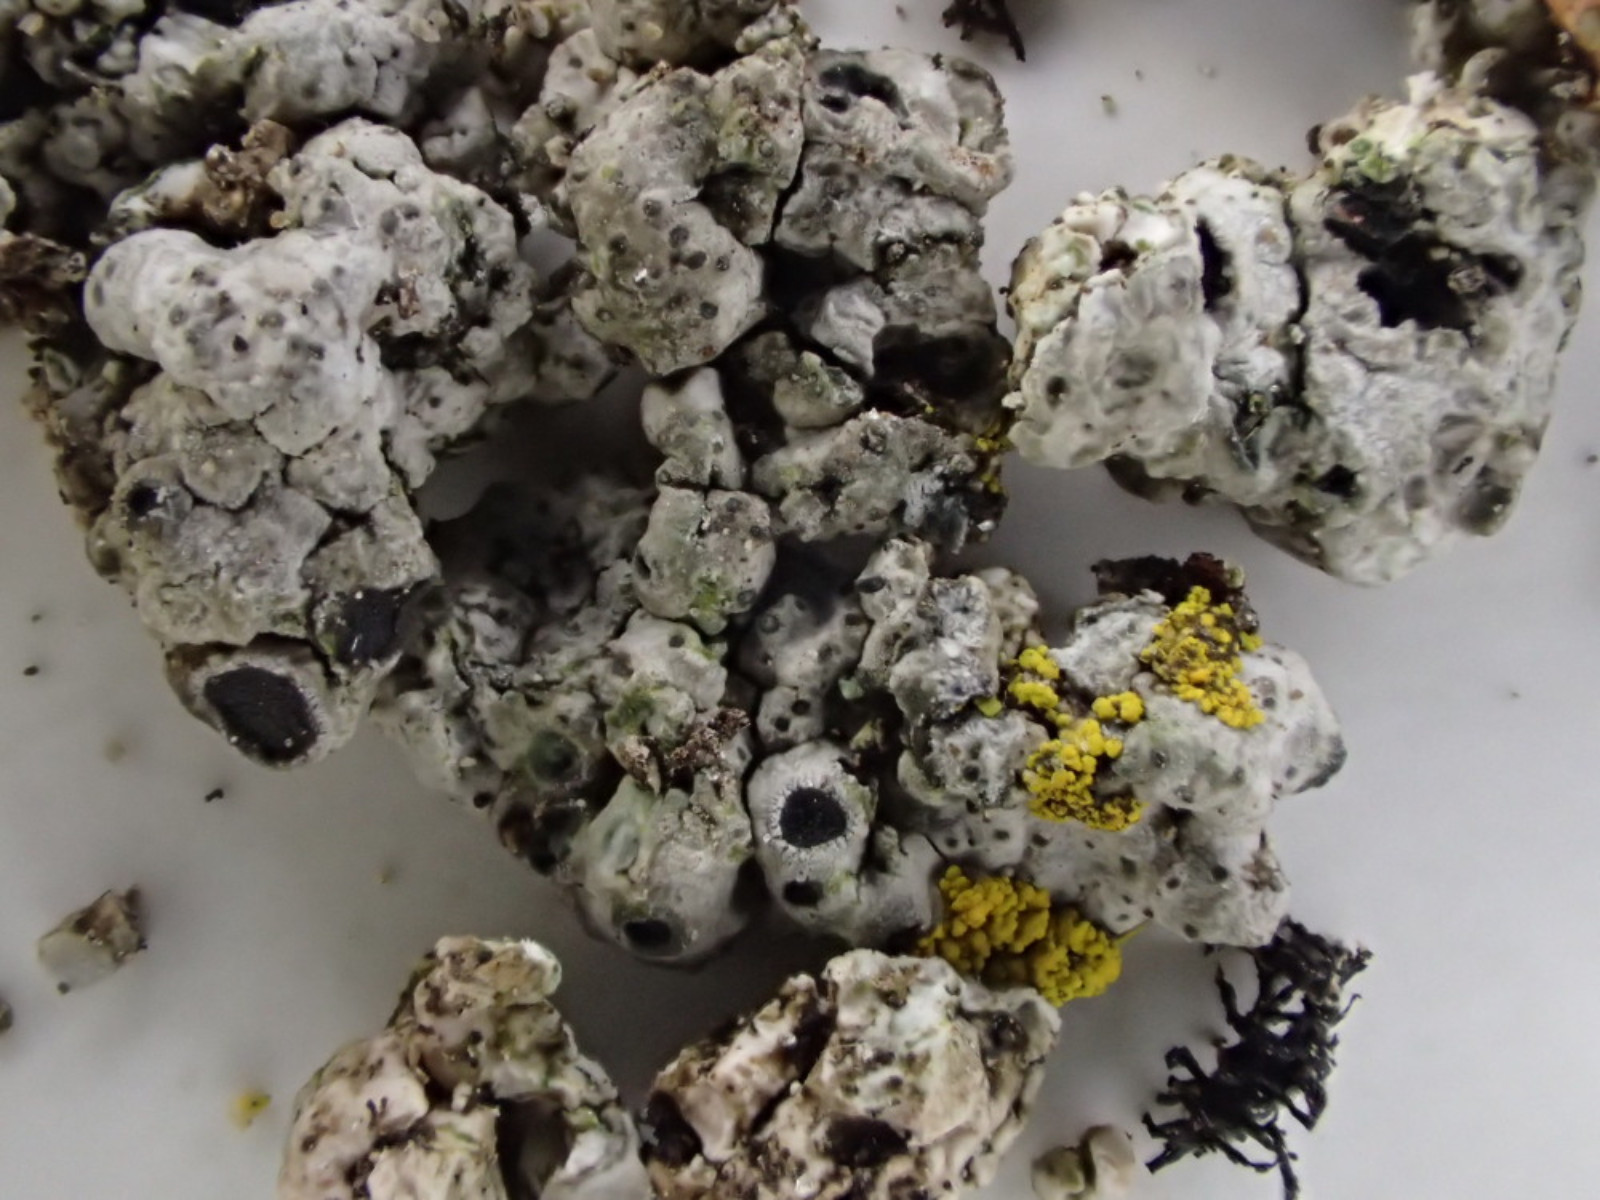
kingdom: Fungi
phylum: Ascomycota
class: Lecanoromycetes
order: Lecanorales
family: Lecanoraceae
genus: Lecanora
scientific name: Lecanora gangaleoides
